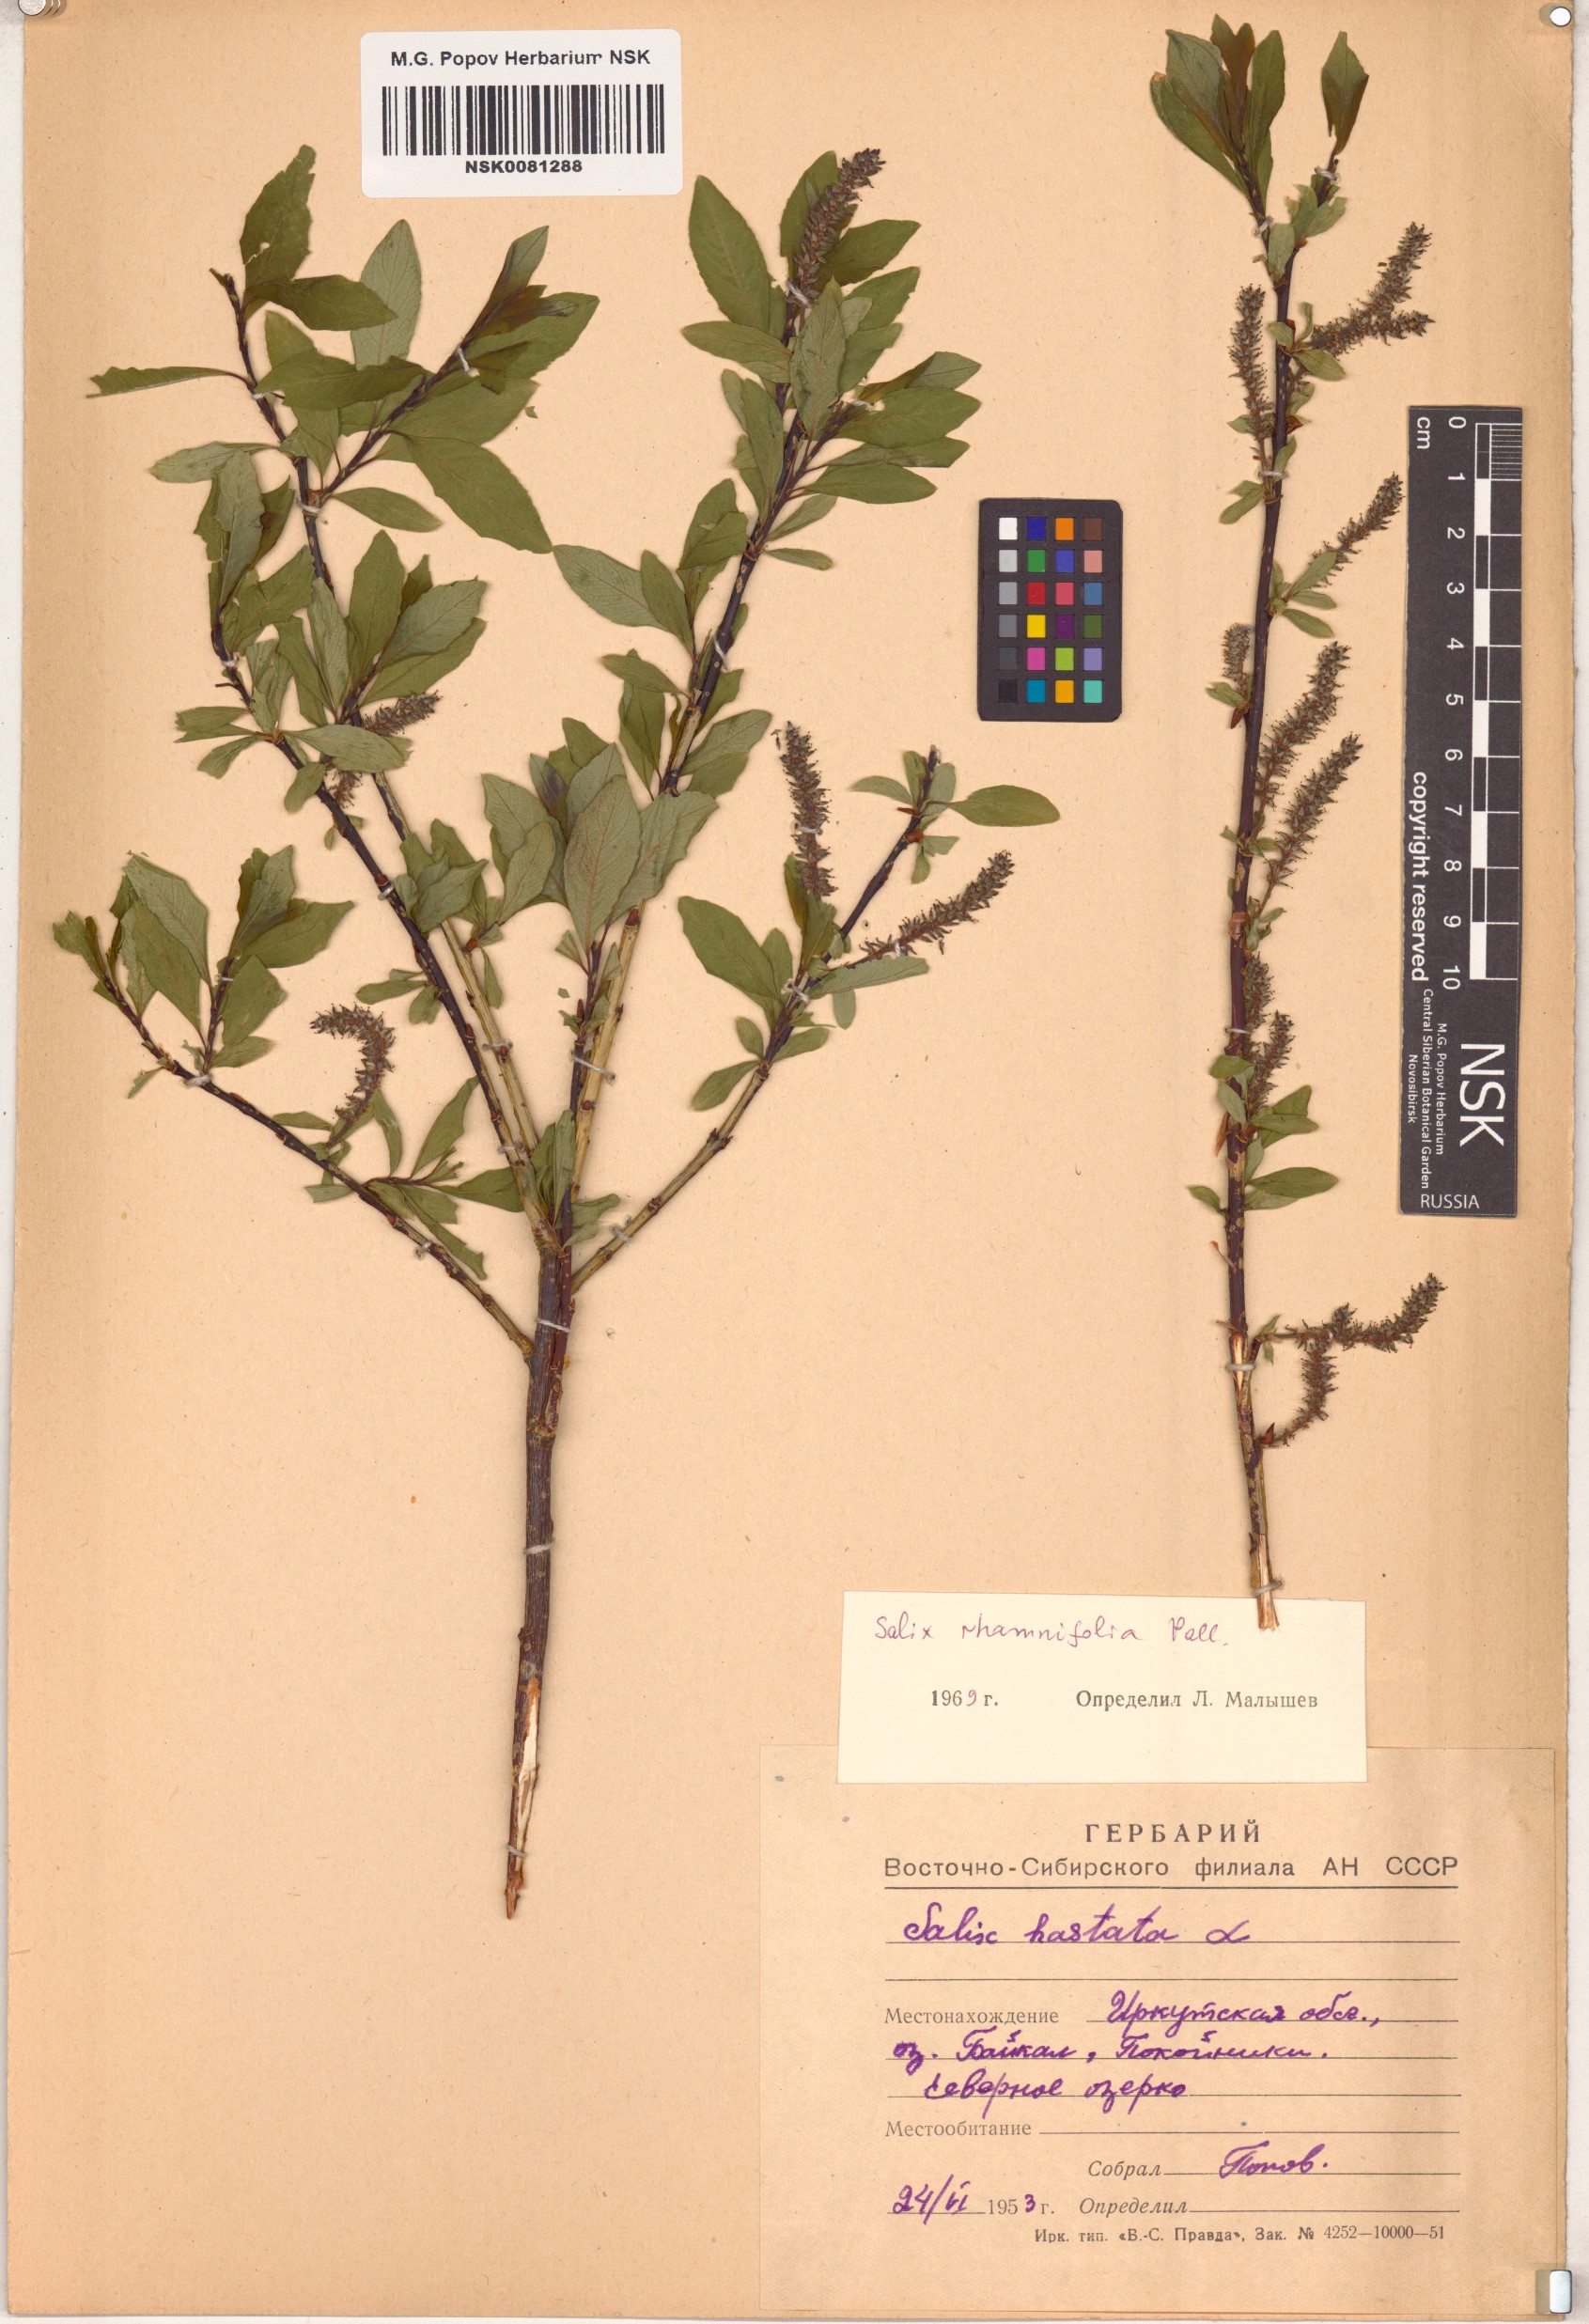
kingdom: Plantae
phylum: Tracheophyta
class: Magnoliopsida
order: Malpighiales
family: Salicaceae
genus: Salix
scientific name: Salix rhamnifolia
